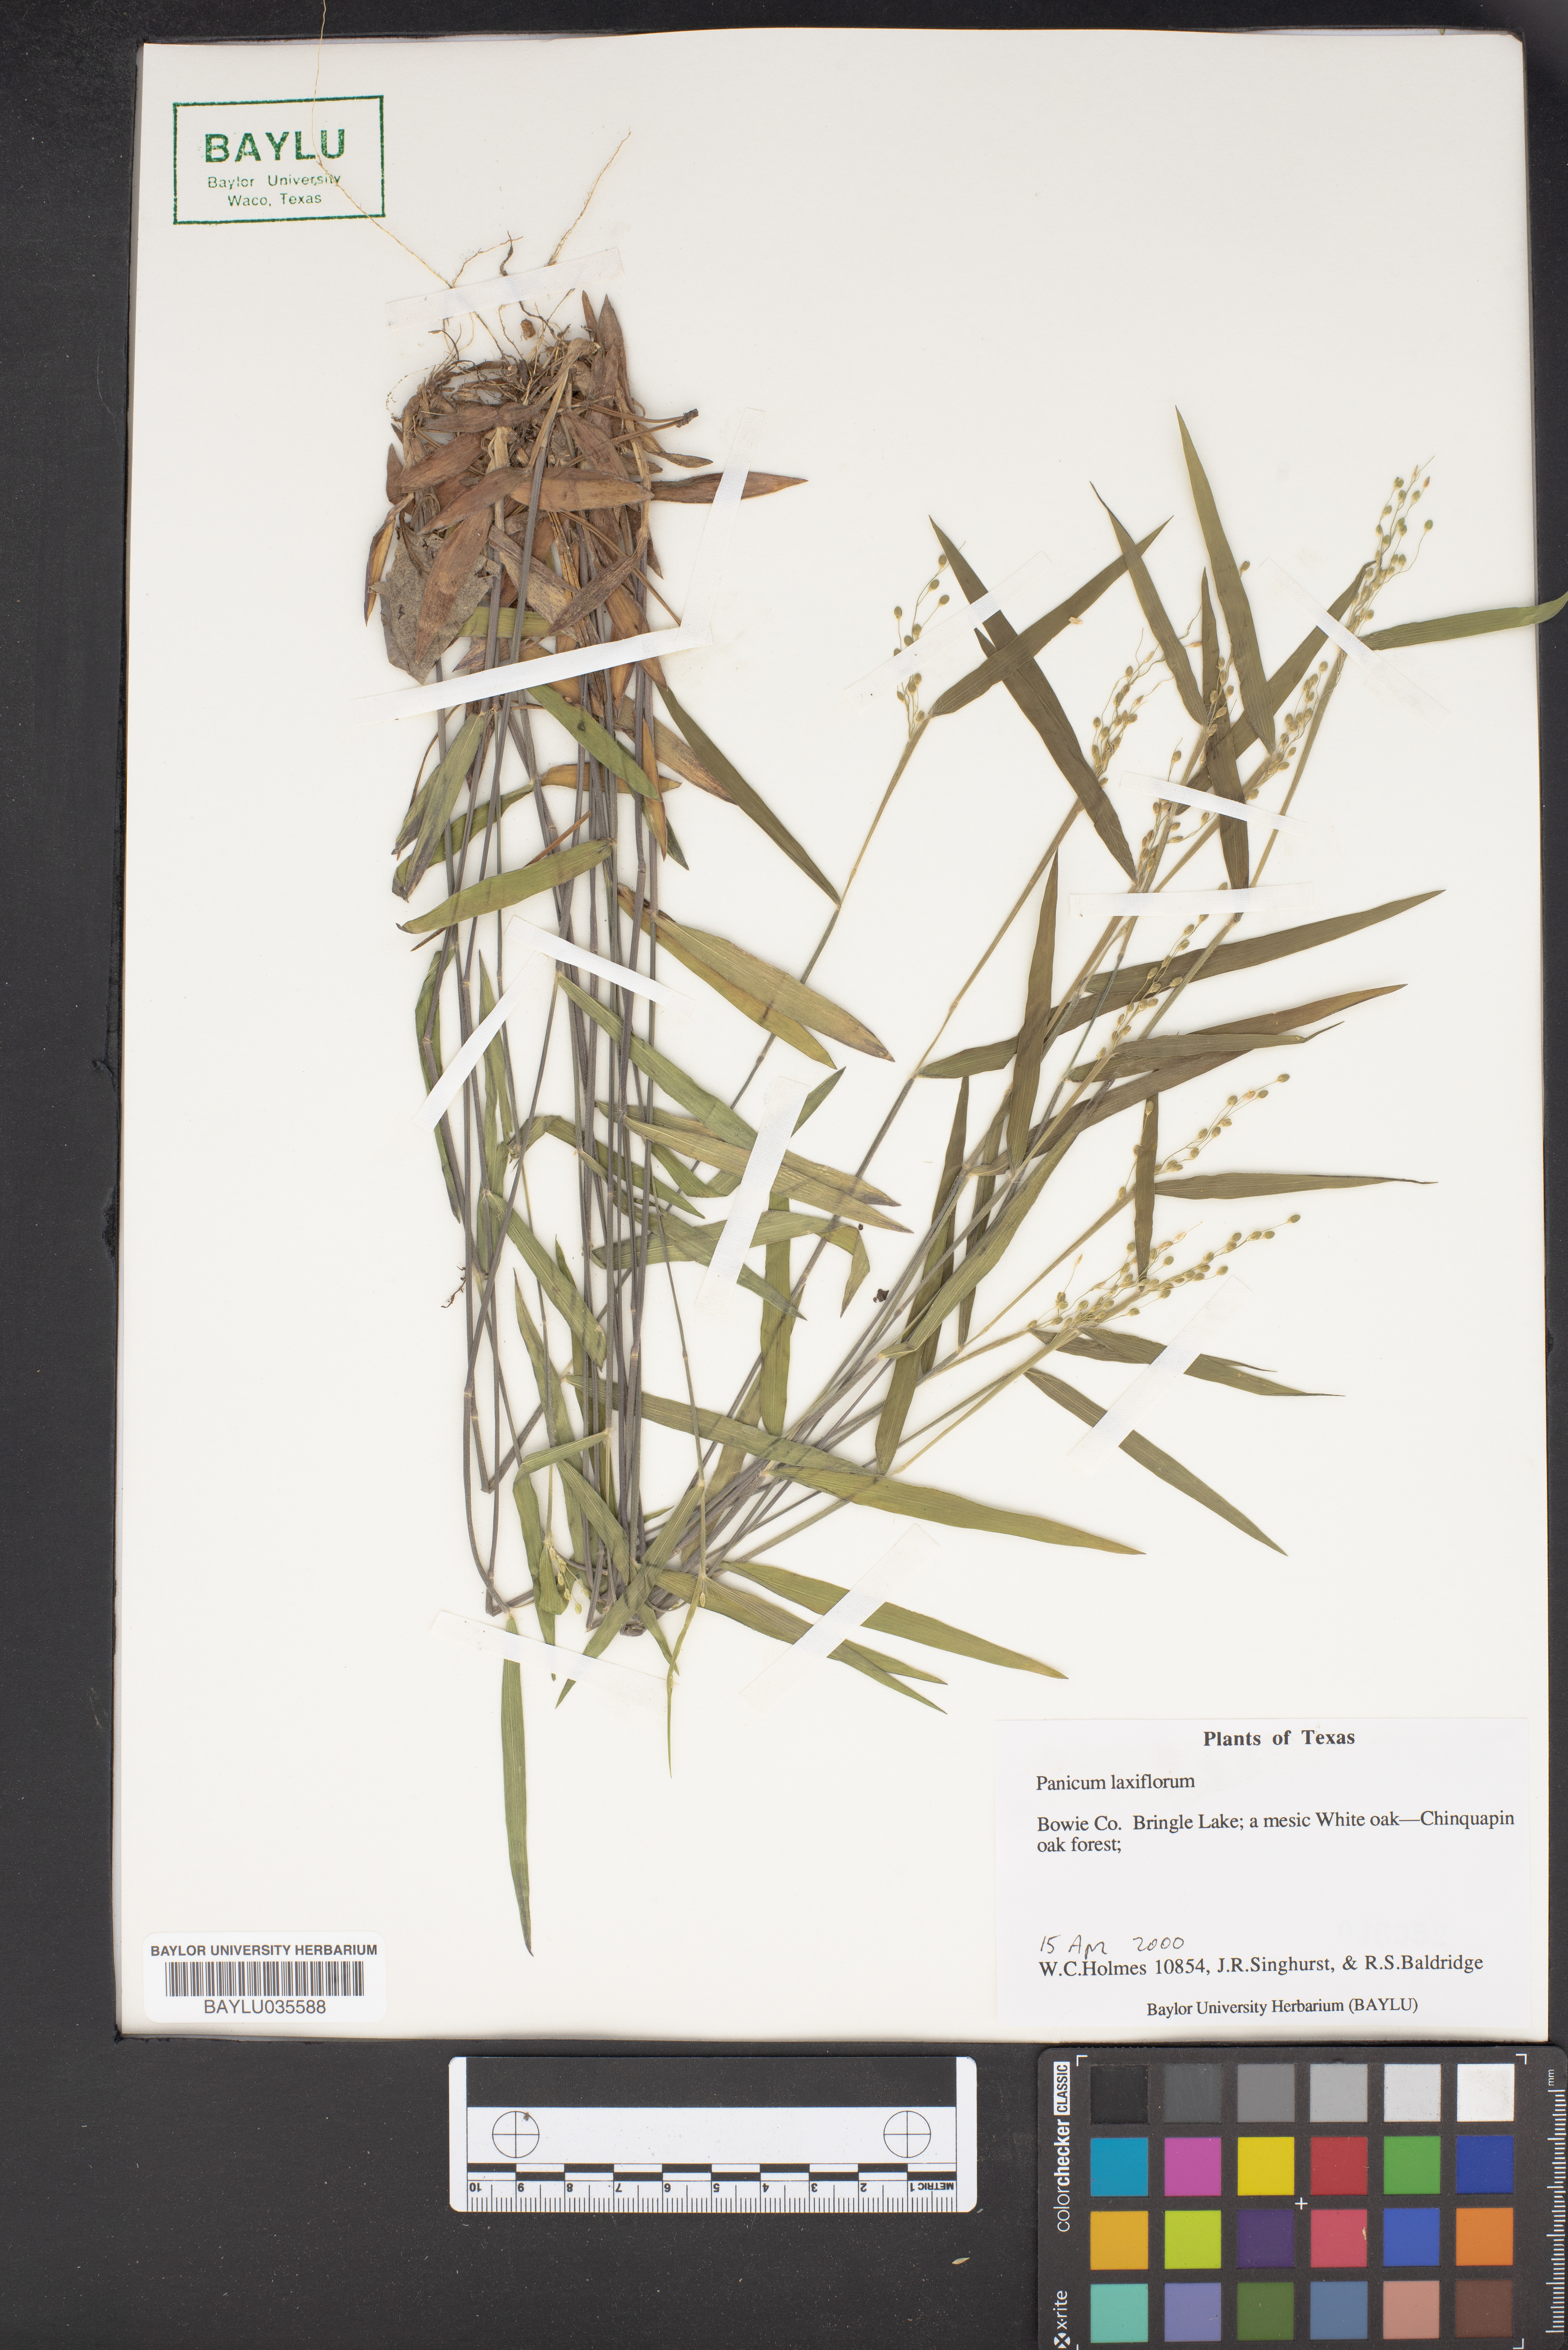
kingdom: Plantae
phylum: Tracheophyta
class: Liliopsida
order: Poales
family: Poaceae
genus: Dichanthelium
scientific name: Dichanthelium laxiflorum
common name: Soft-tuft panic grass
